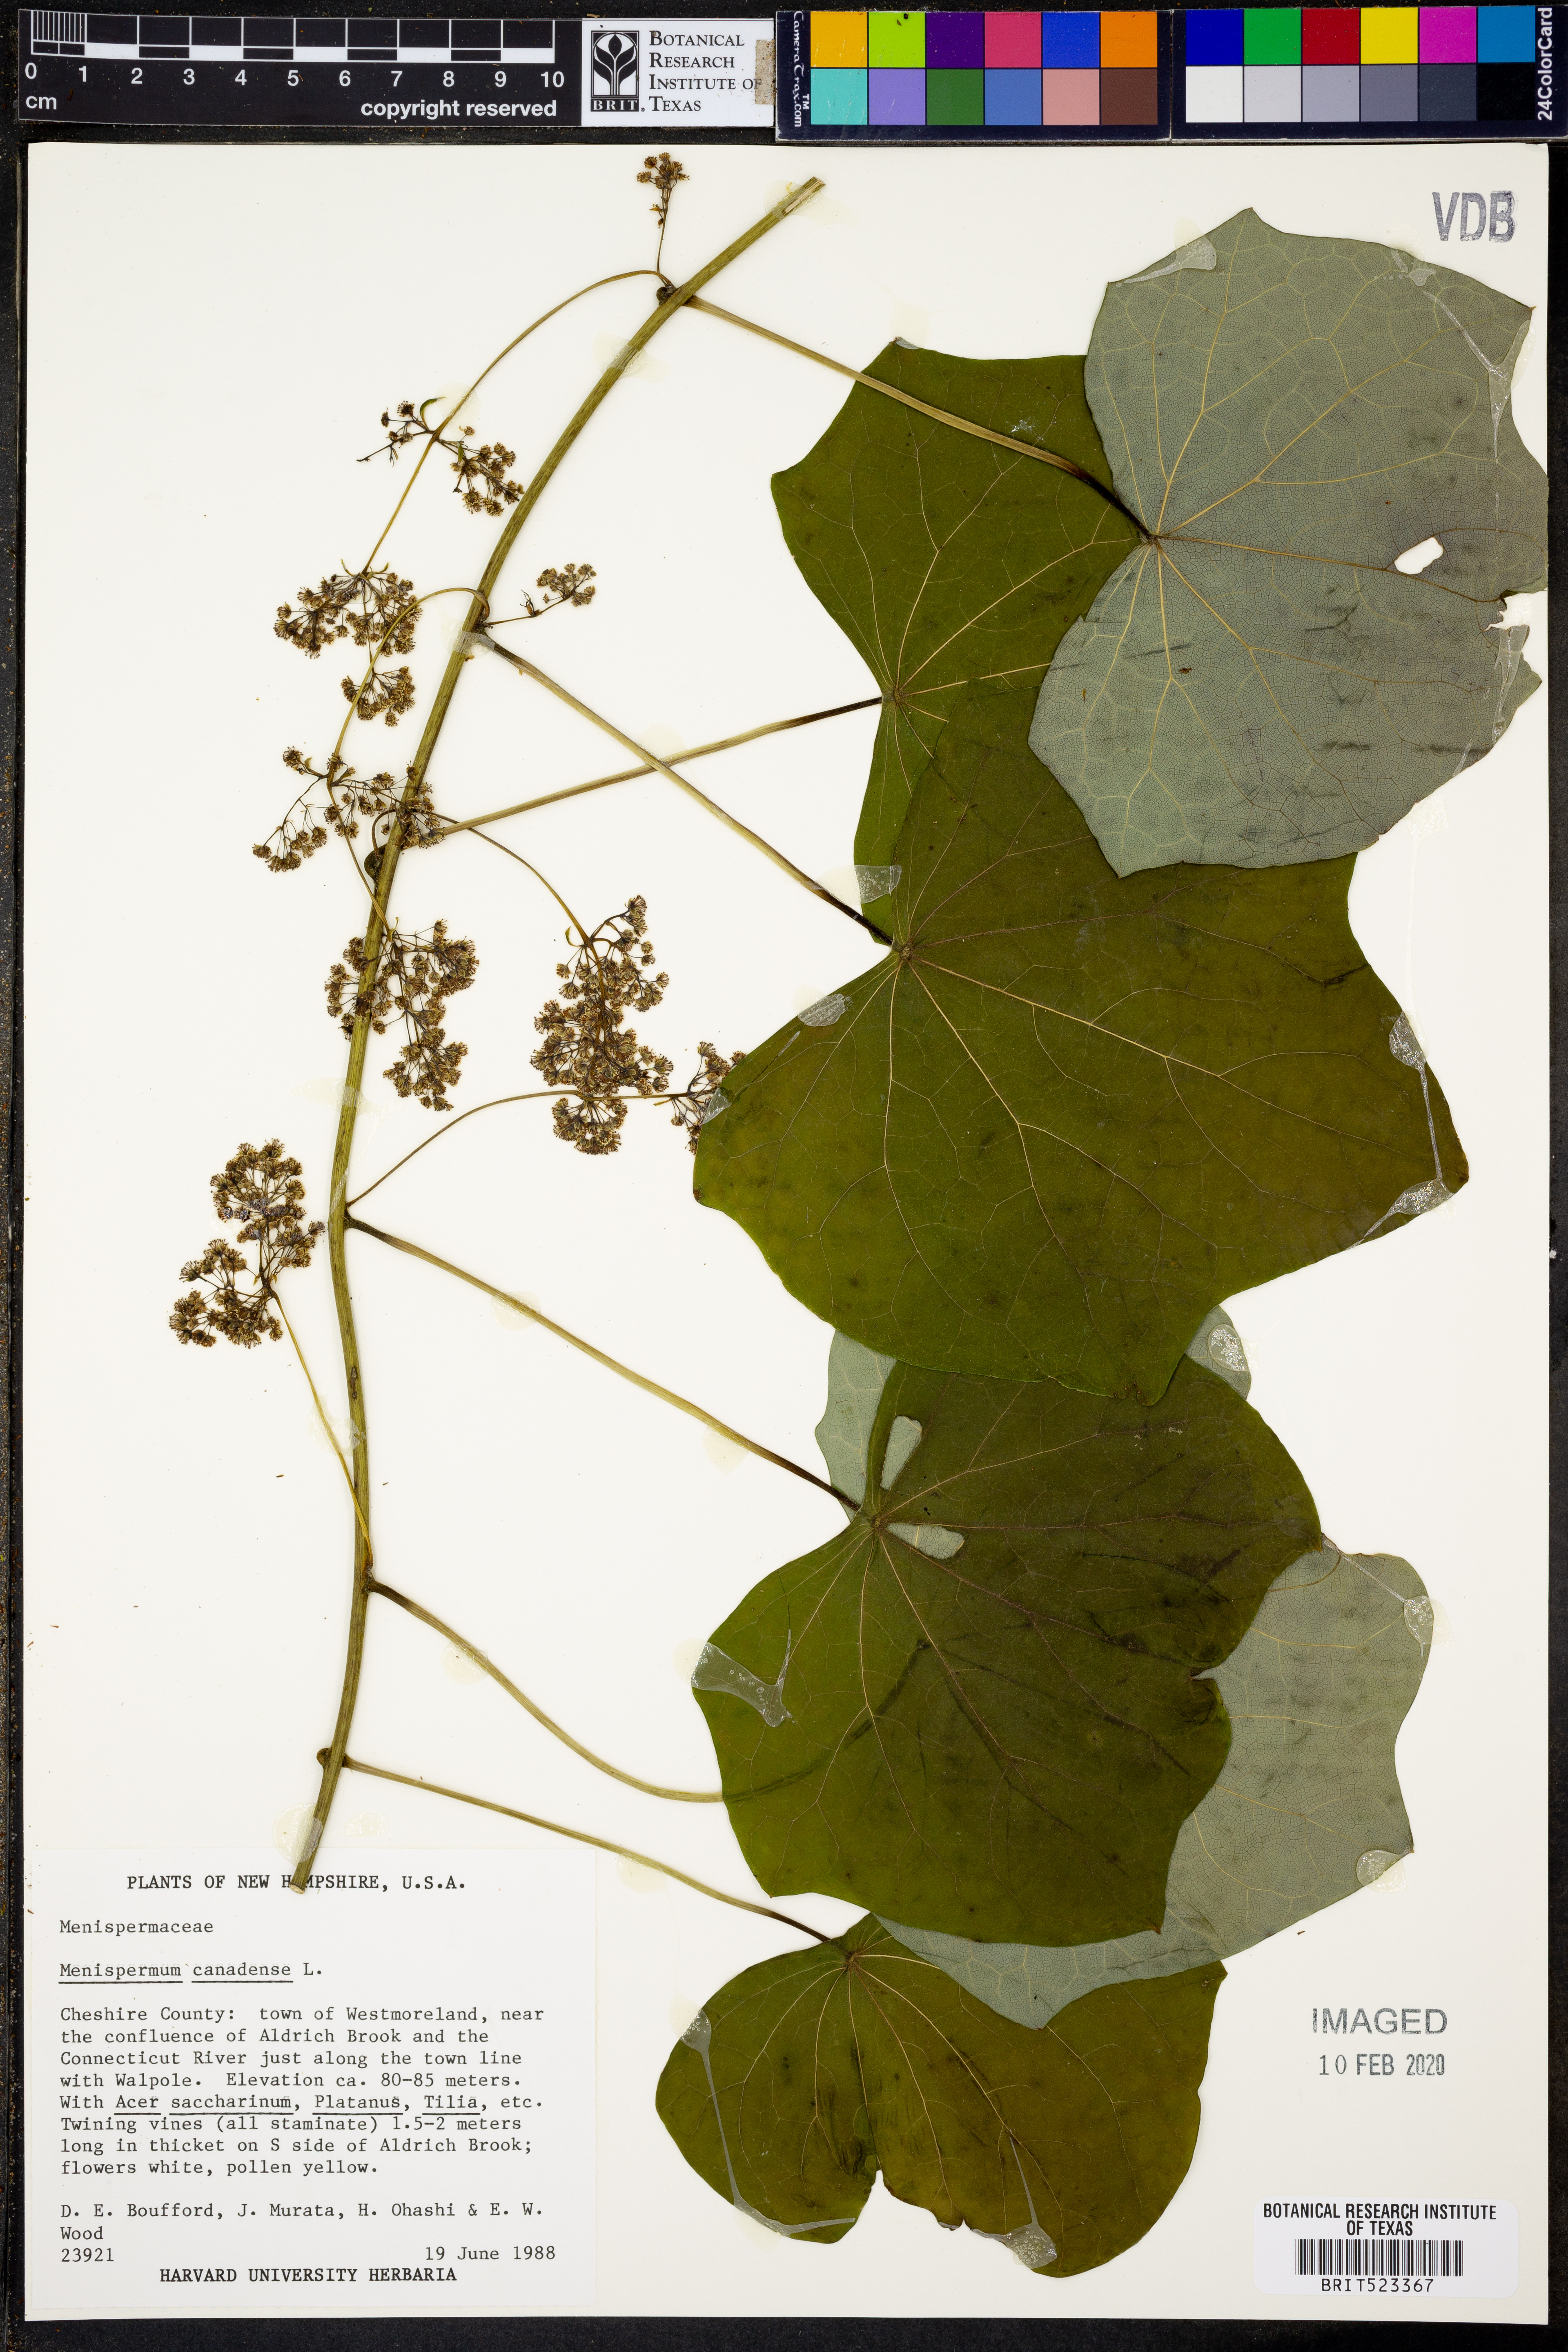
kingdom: Plantae
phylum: Tracheophyta
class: Magnoliopsida
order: Ranunculales
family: Menispermaceae
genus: Menispermum
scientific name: Menispermum canadense
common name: Moonseed
